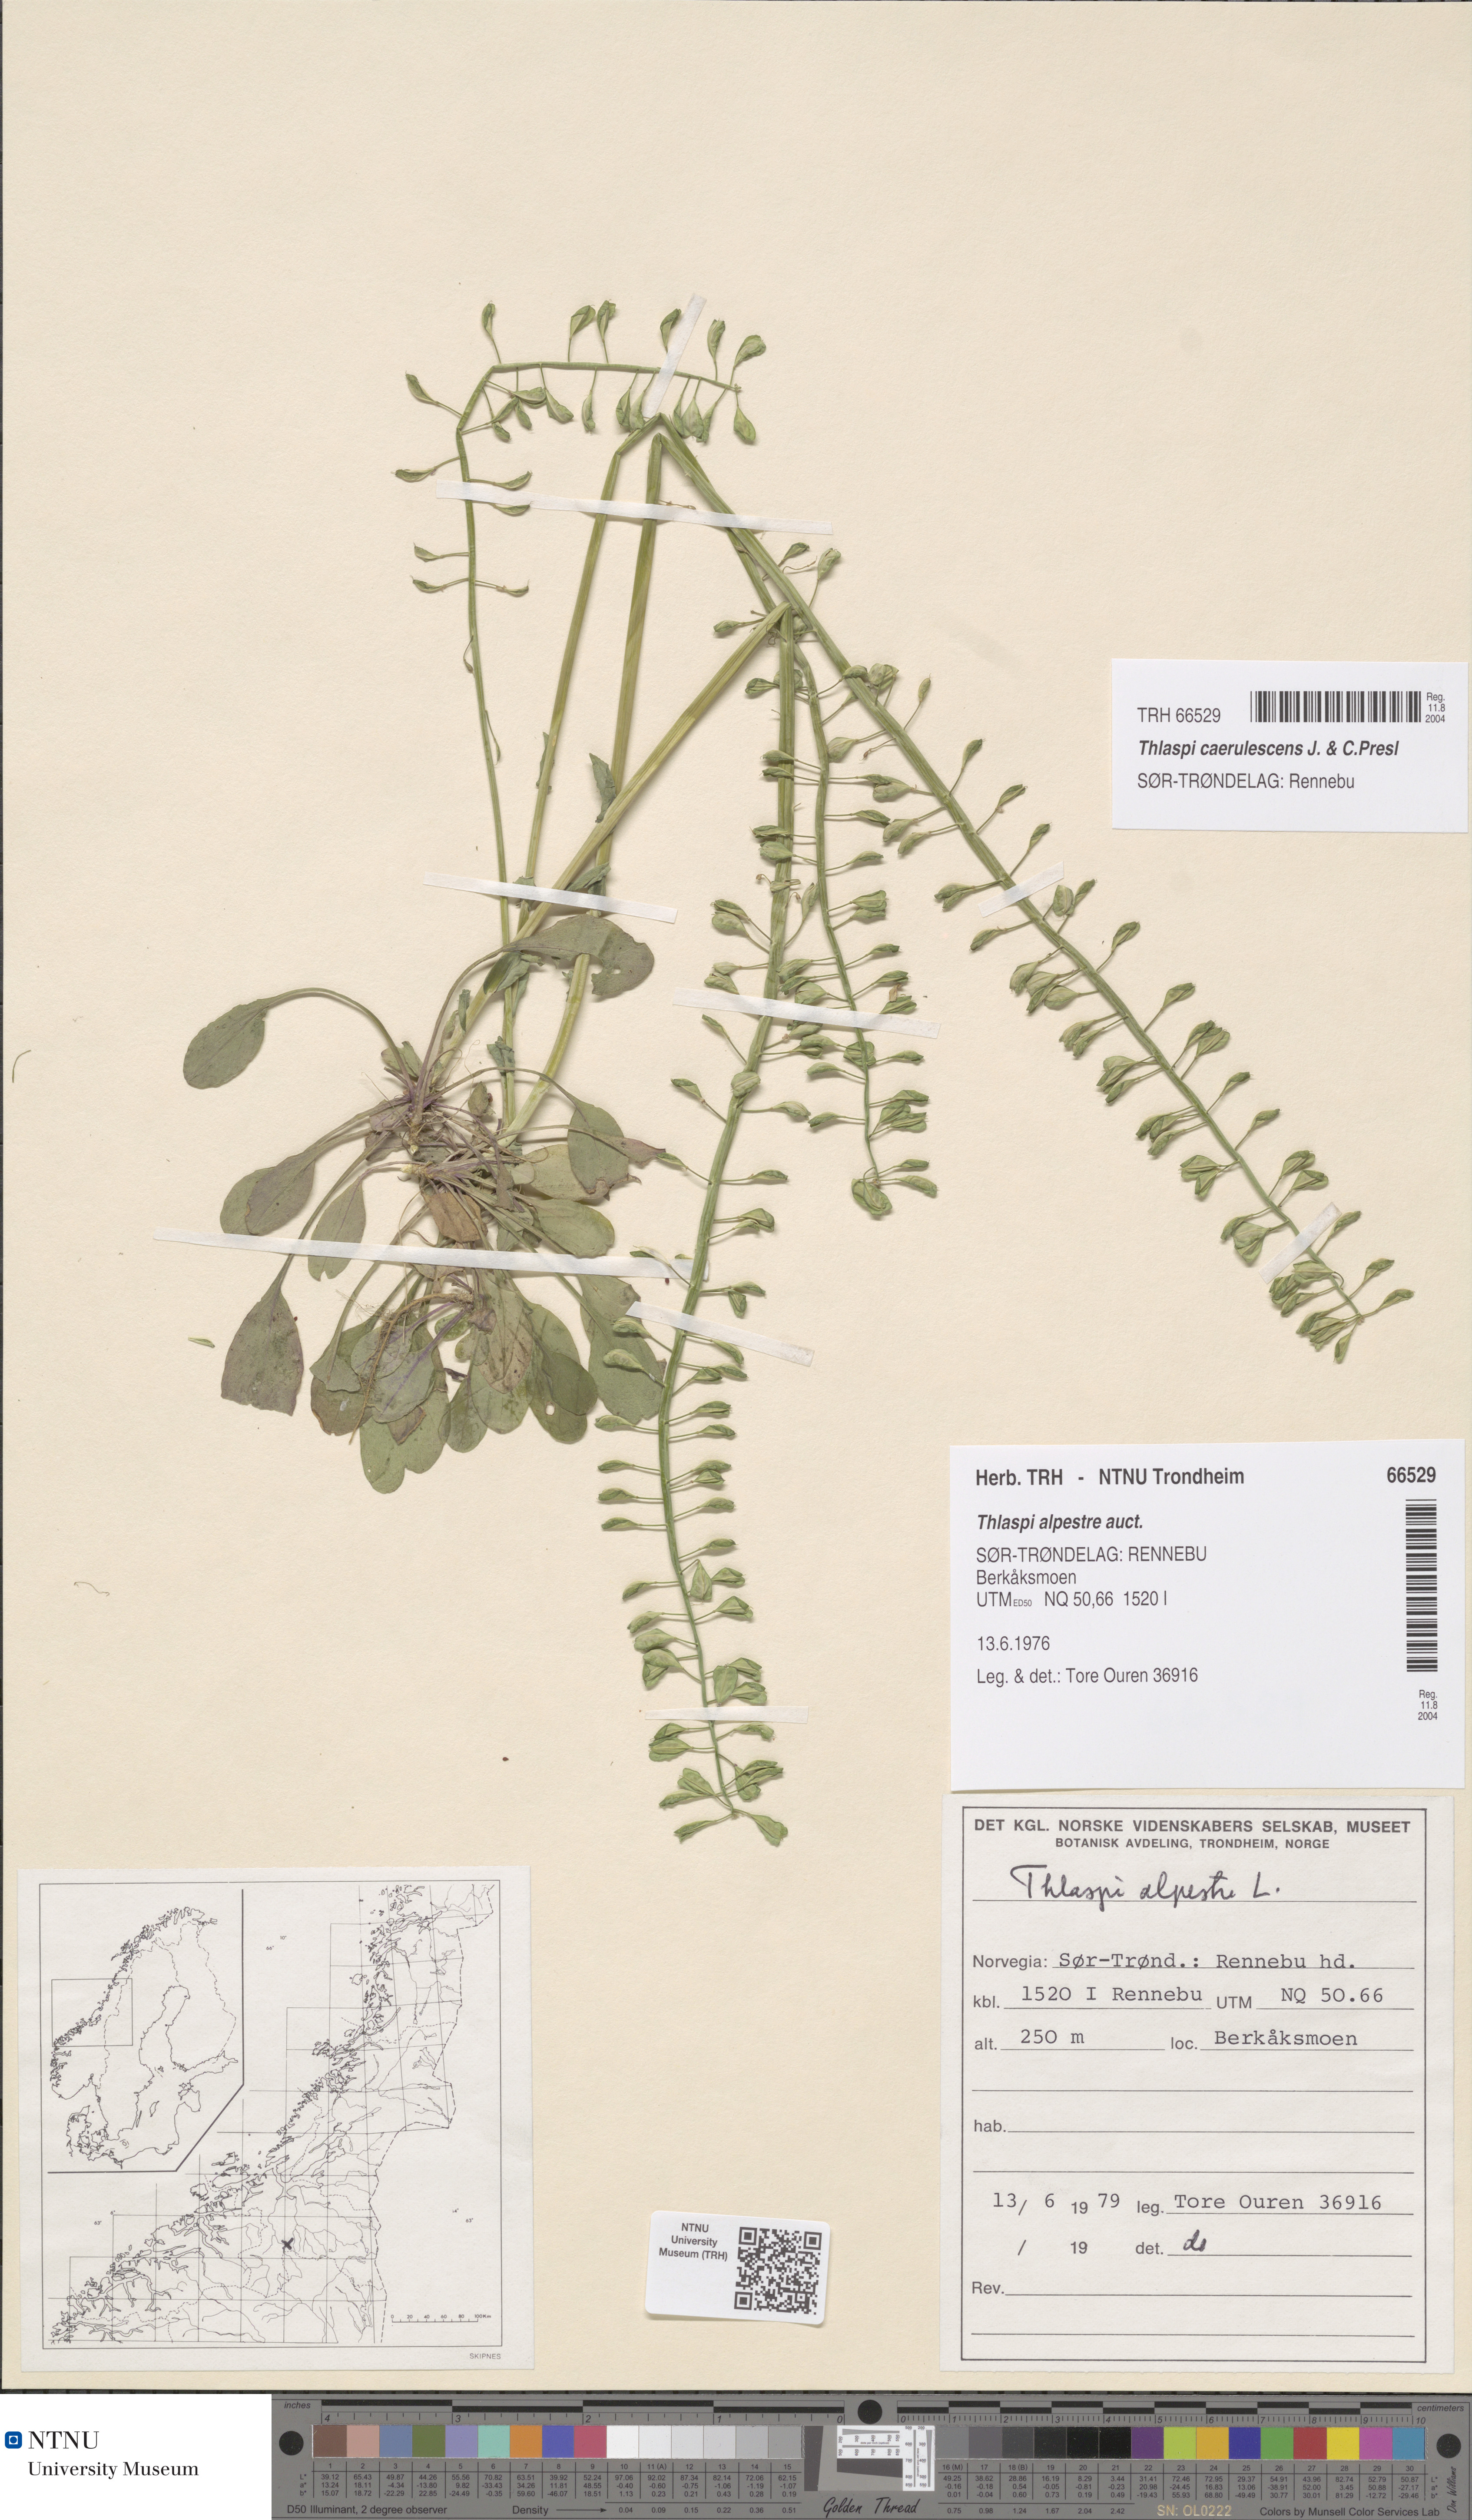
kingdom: Plantae
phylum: Tracheophyta
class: Magnoliopsida
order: Brassicales
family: Brassicaceae
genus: Noccaea
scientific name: Noccaea caerulescens
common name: Alpine pennycress
